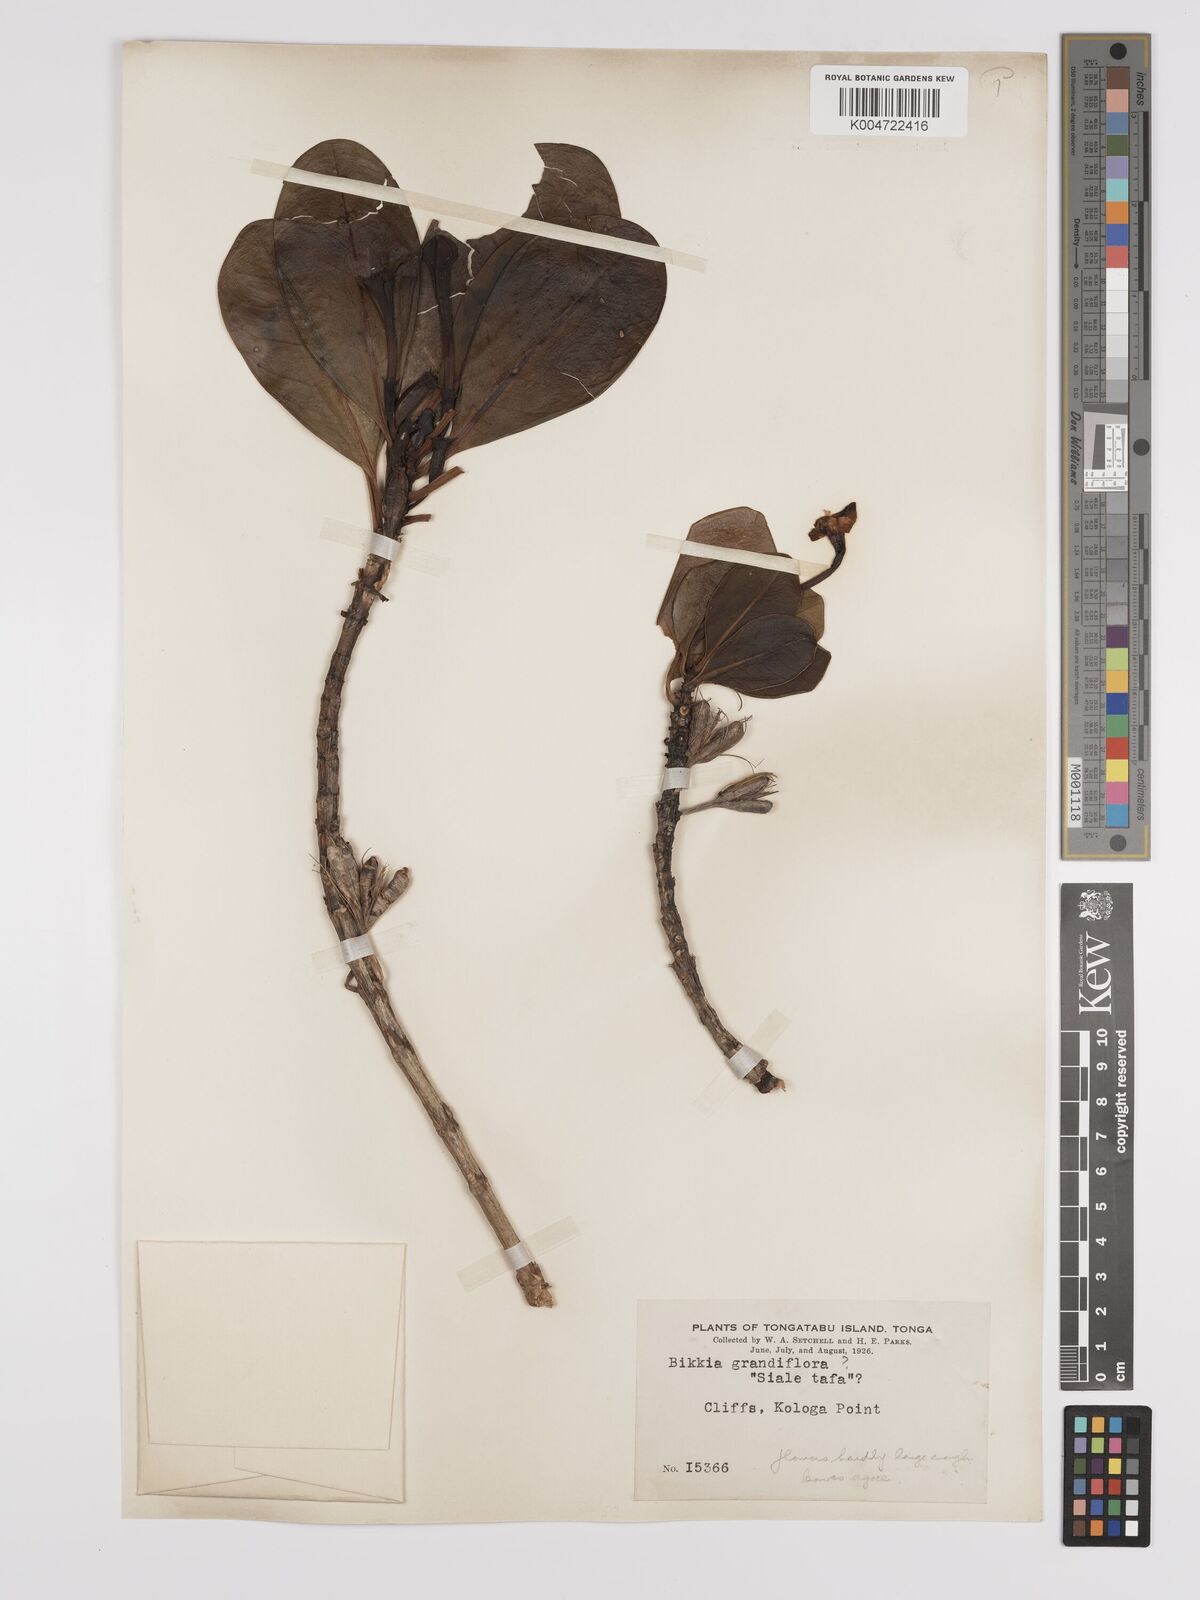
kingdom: Plantae
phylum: Tracheophyta
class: Magnoliopsida
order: Gentianales
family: Rubiaceae
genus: Bikkia
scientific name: Bikkia
